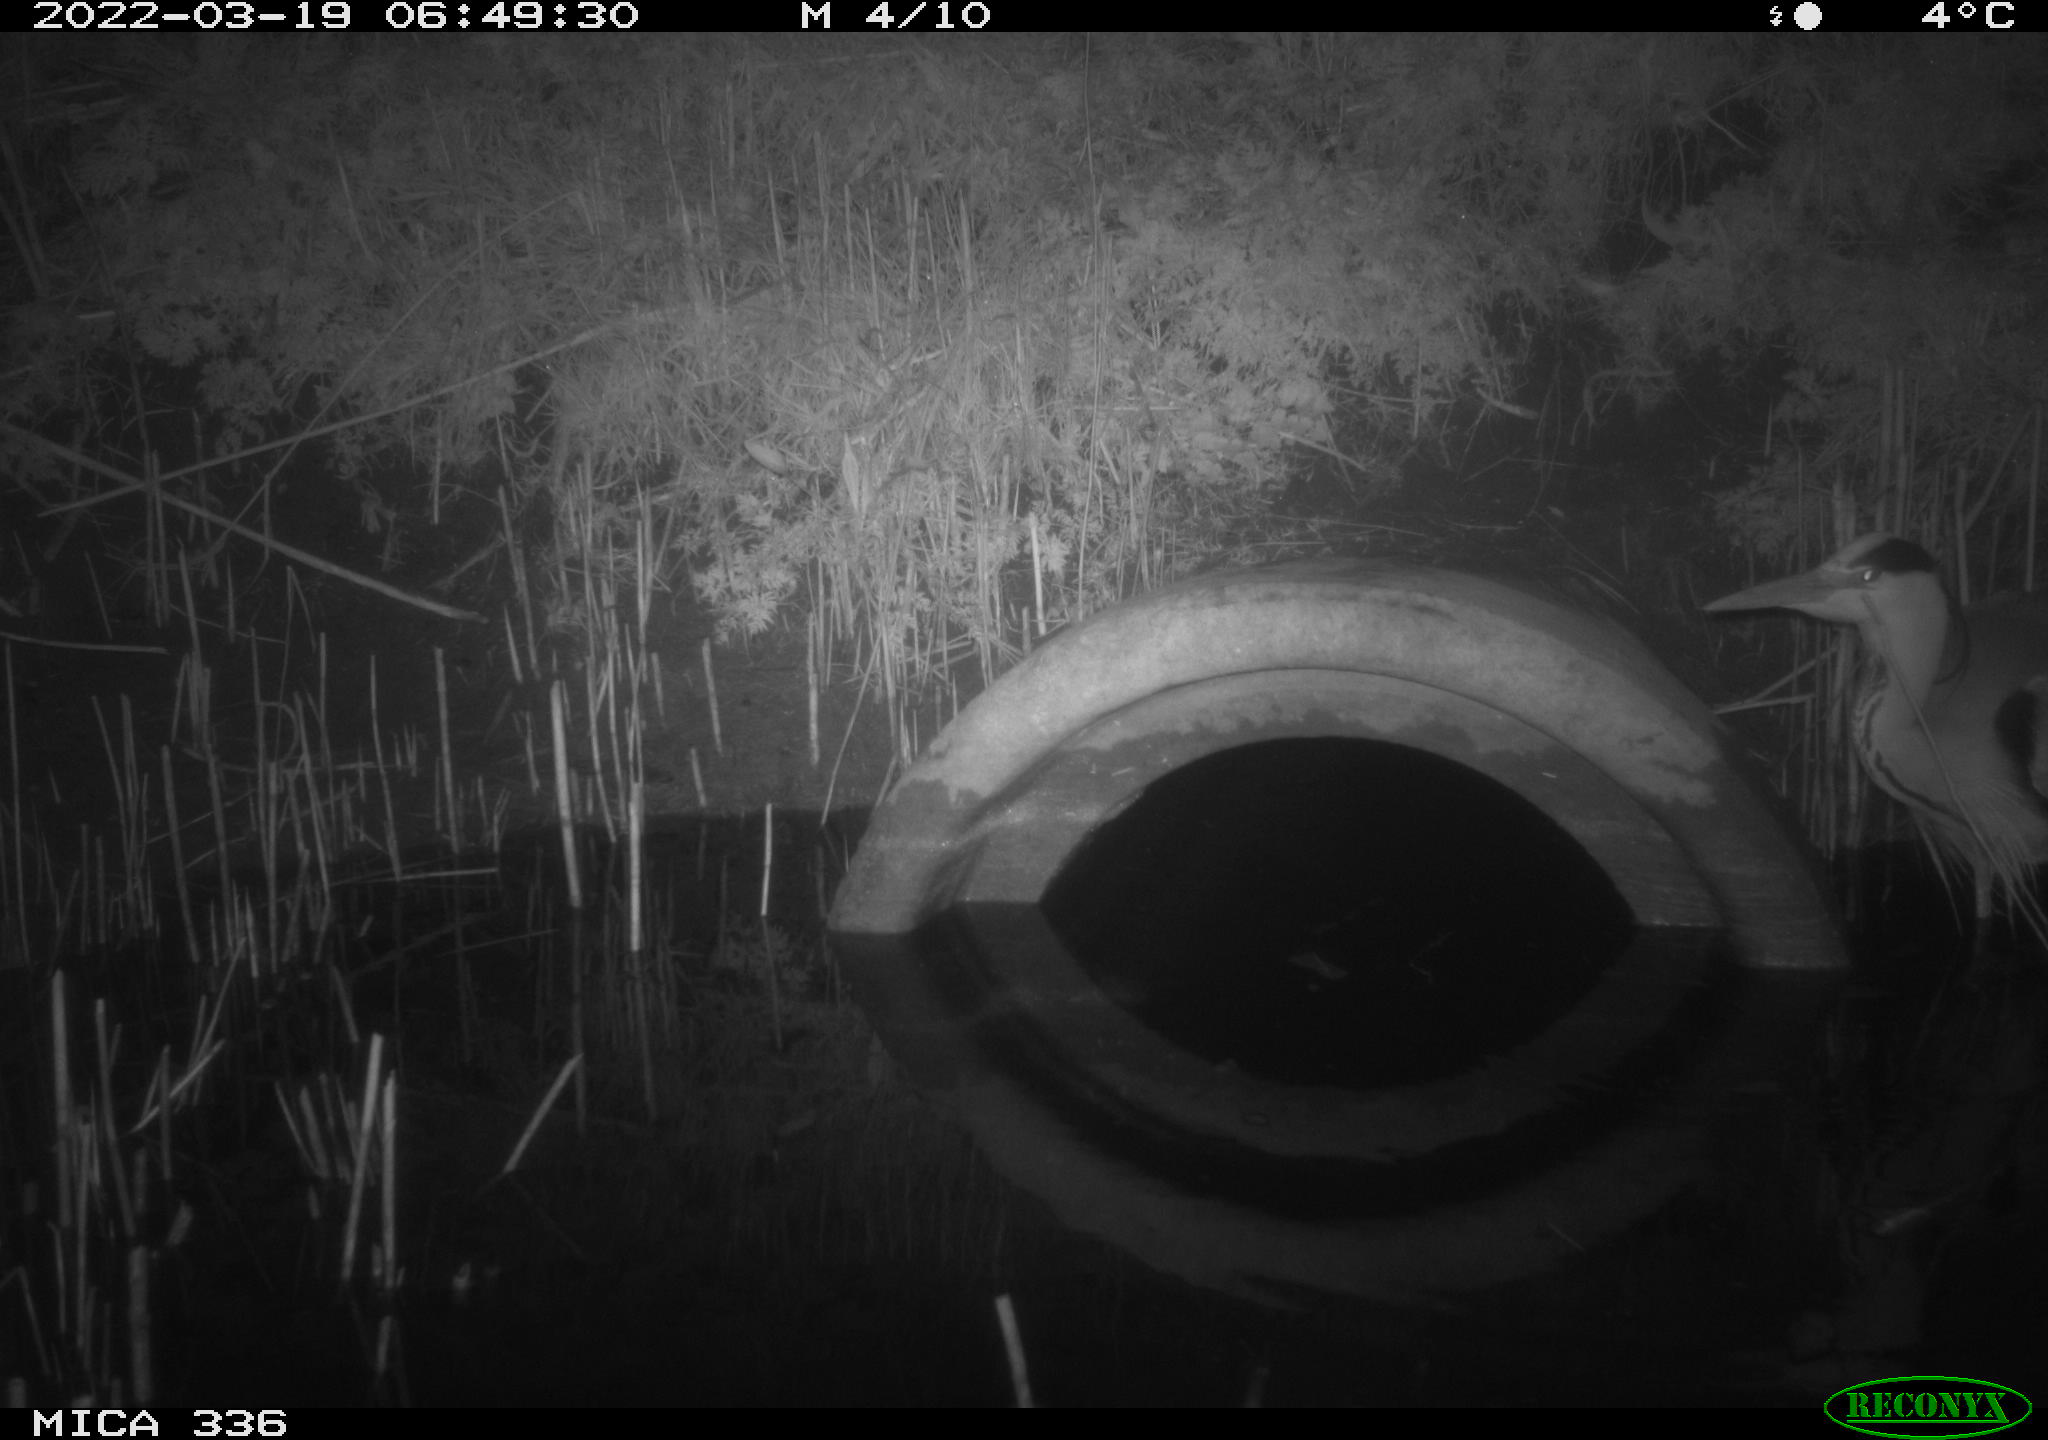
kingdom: Animalia
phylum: Chordata
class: Aves
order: Pelecaniformes
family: Ardeidae
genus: Ardea
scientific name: Ardea cinerea
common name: Grey heron
